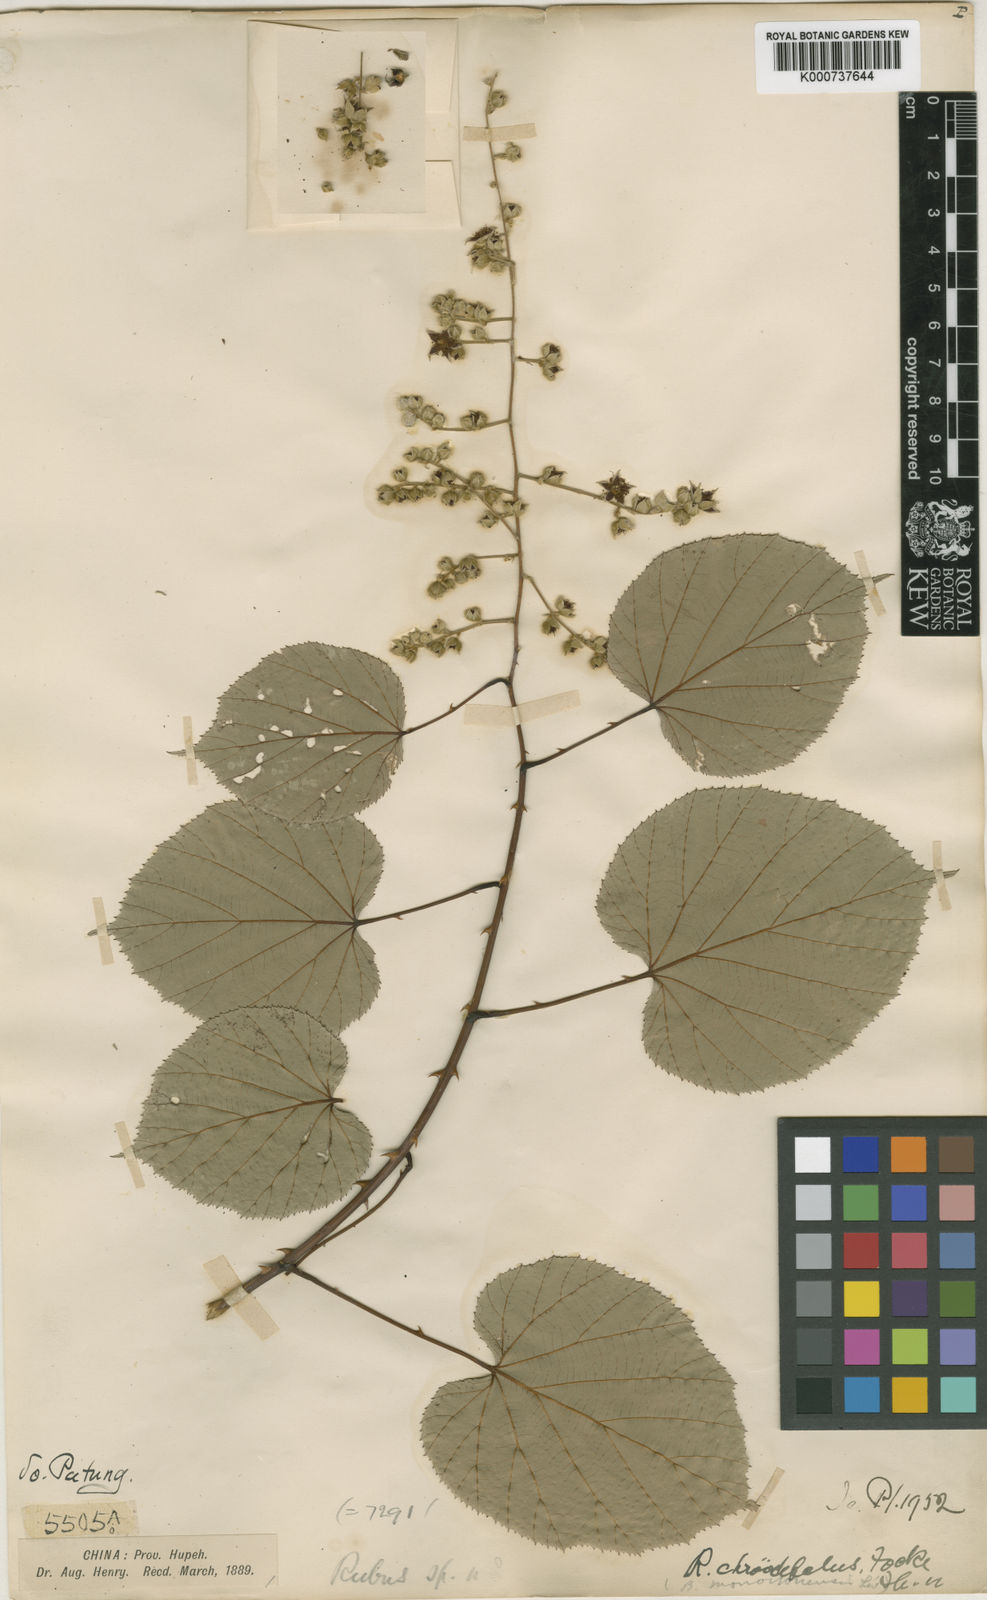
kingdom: Plantae
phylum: Tracheophyta
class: Magnoliopsida
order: Rosales
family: Rosaceae
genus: Rubus
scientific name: Rubus chroosepalus
